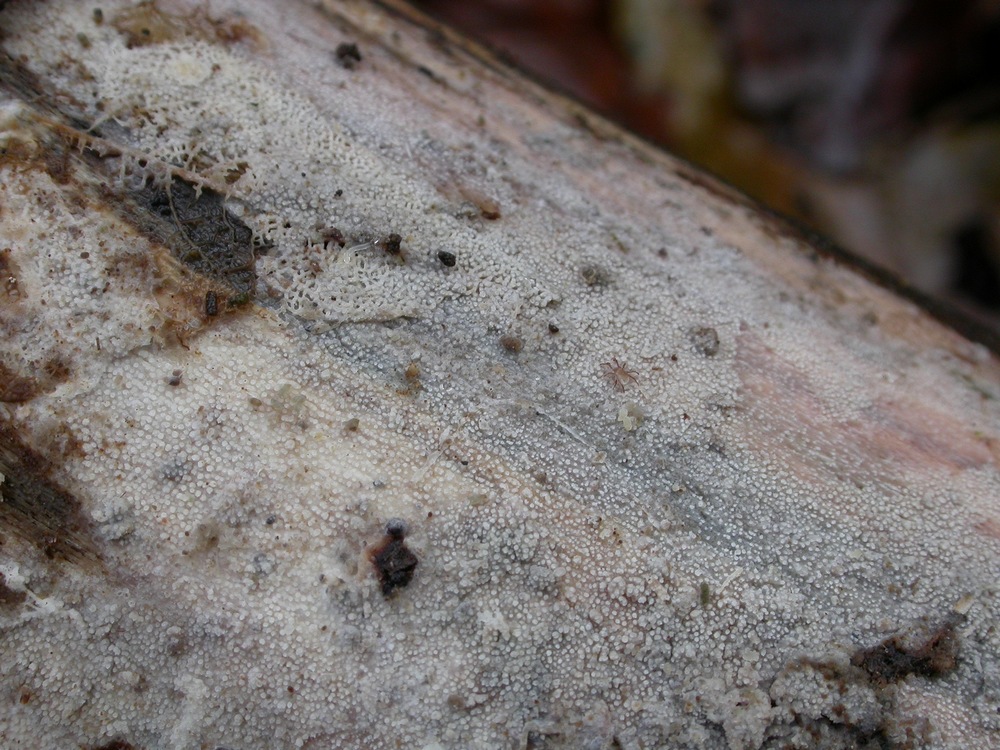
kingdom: Fungi
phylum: Basidiomycota
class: Agaricomycetes
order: Hymenochaetales
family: Rickenellaceae
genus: Resinicium
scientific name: Resinicium bicolor
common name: almindelig vokstand
